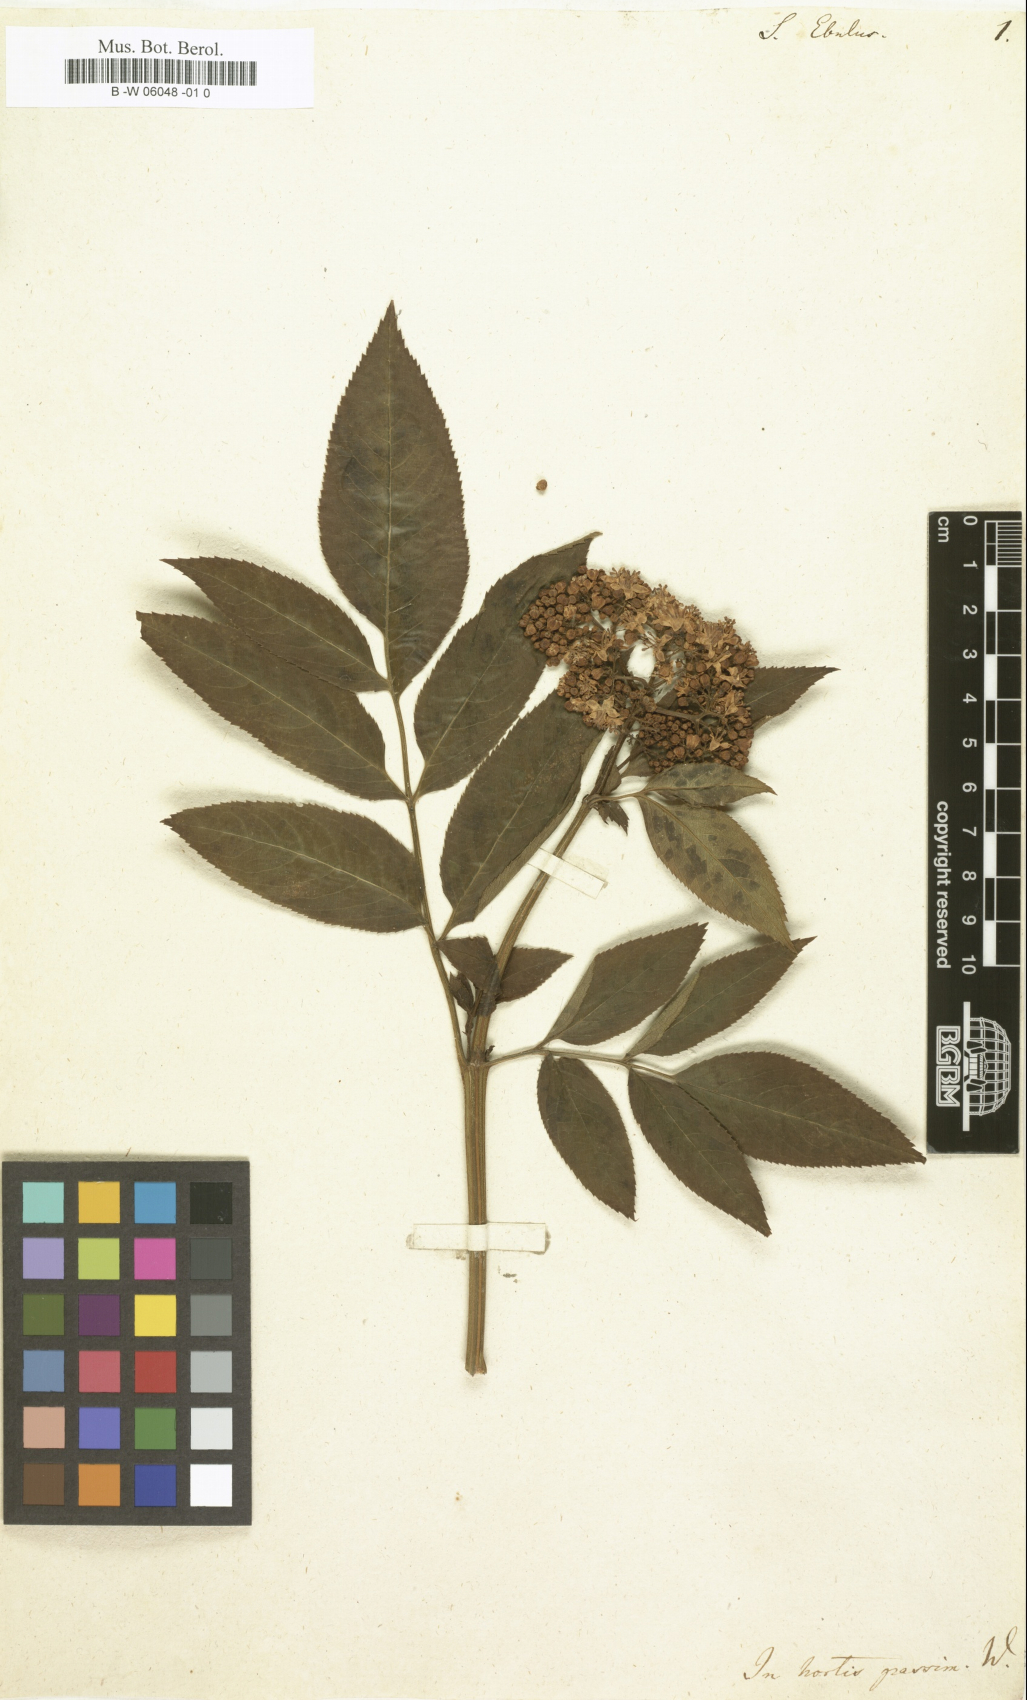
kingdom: Plantae
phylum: Tracheophyta
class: Magnoliopsida
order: Dipsacales
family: Viburnaceae
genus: Sambucus
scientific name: Sambucus ebulus
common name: Dwarf elder
